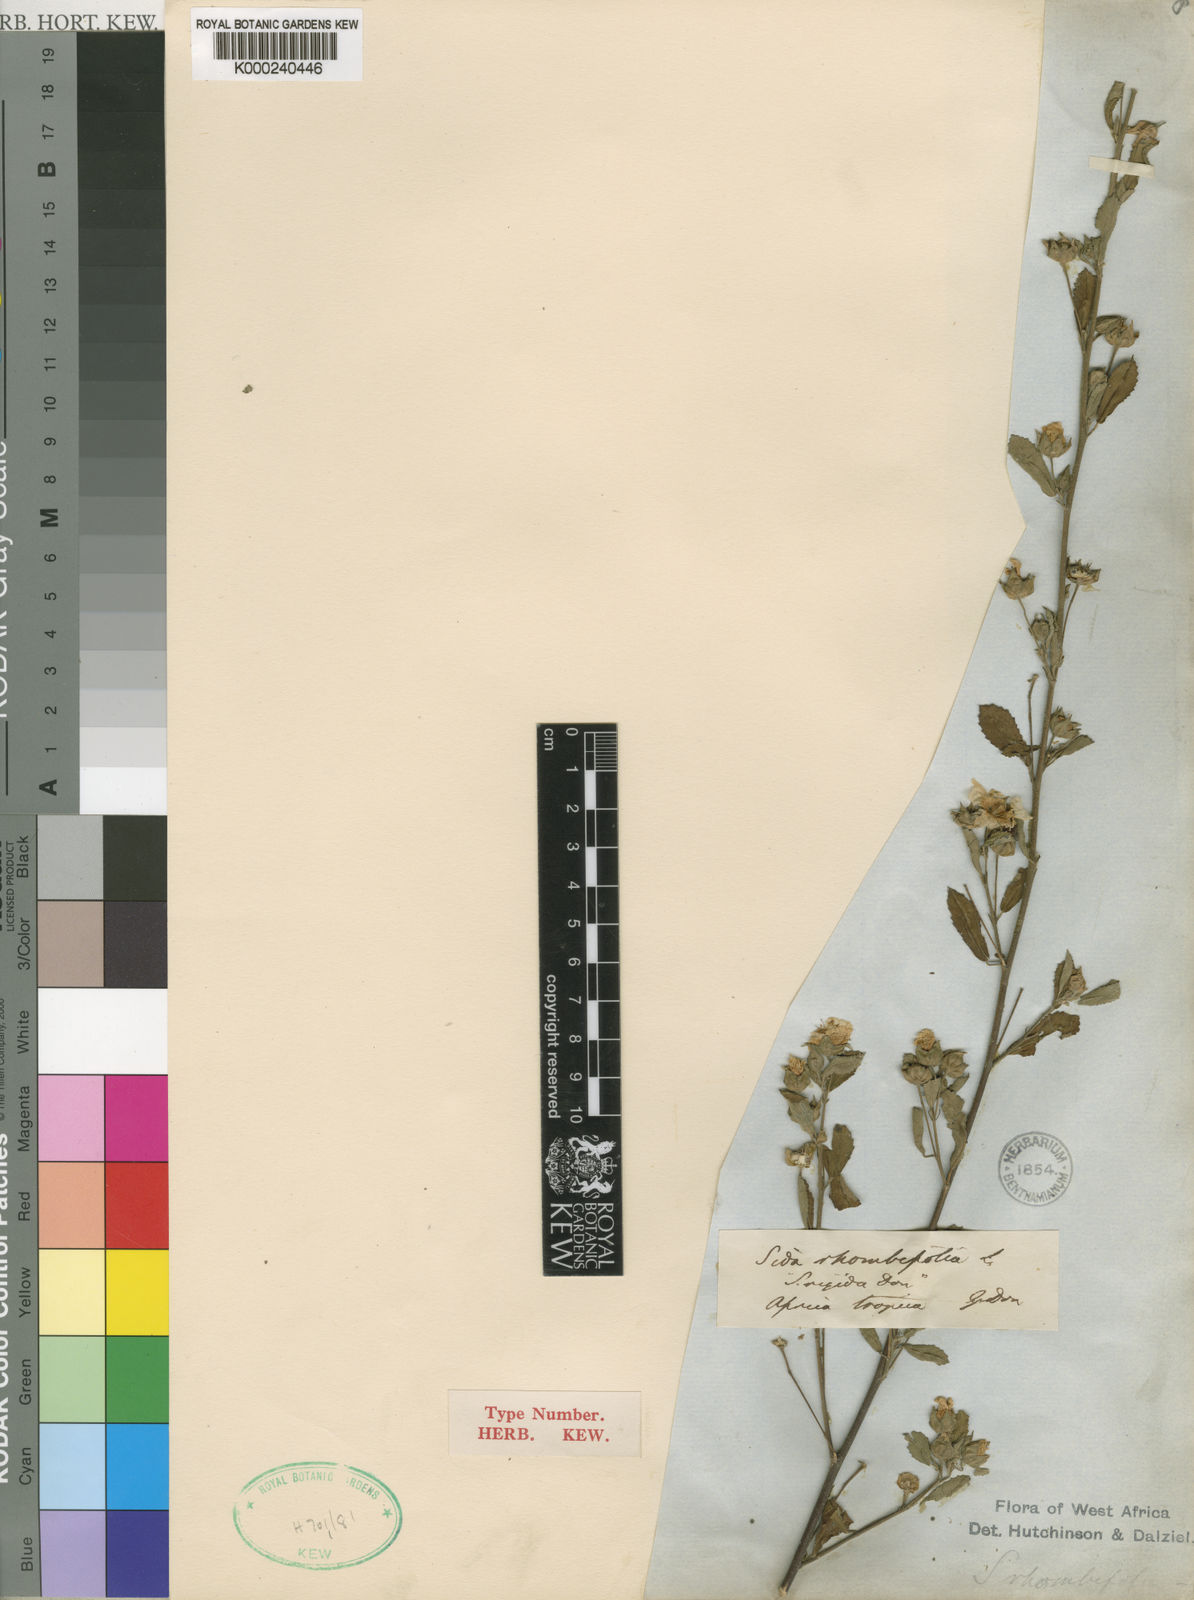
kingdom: Plantae
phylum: Tracheophyta
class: Magnoliopsida
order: Malvales
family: Malvaceae
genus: Sida
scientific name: Sida rigida
